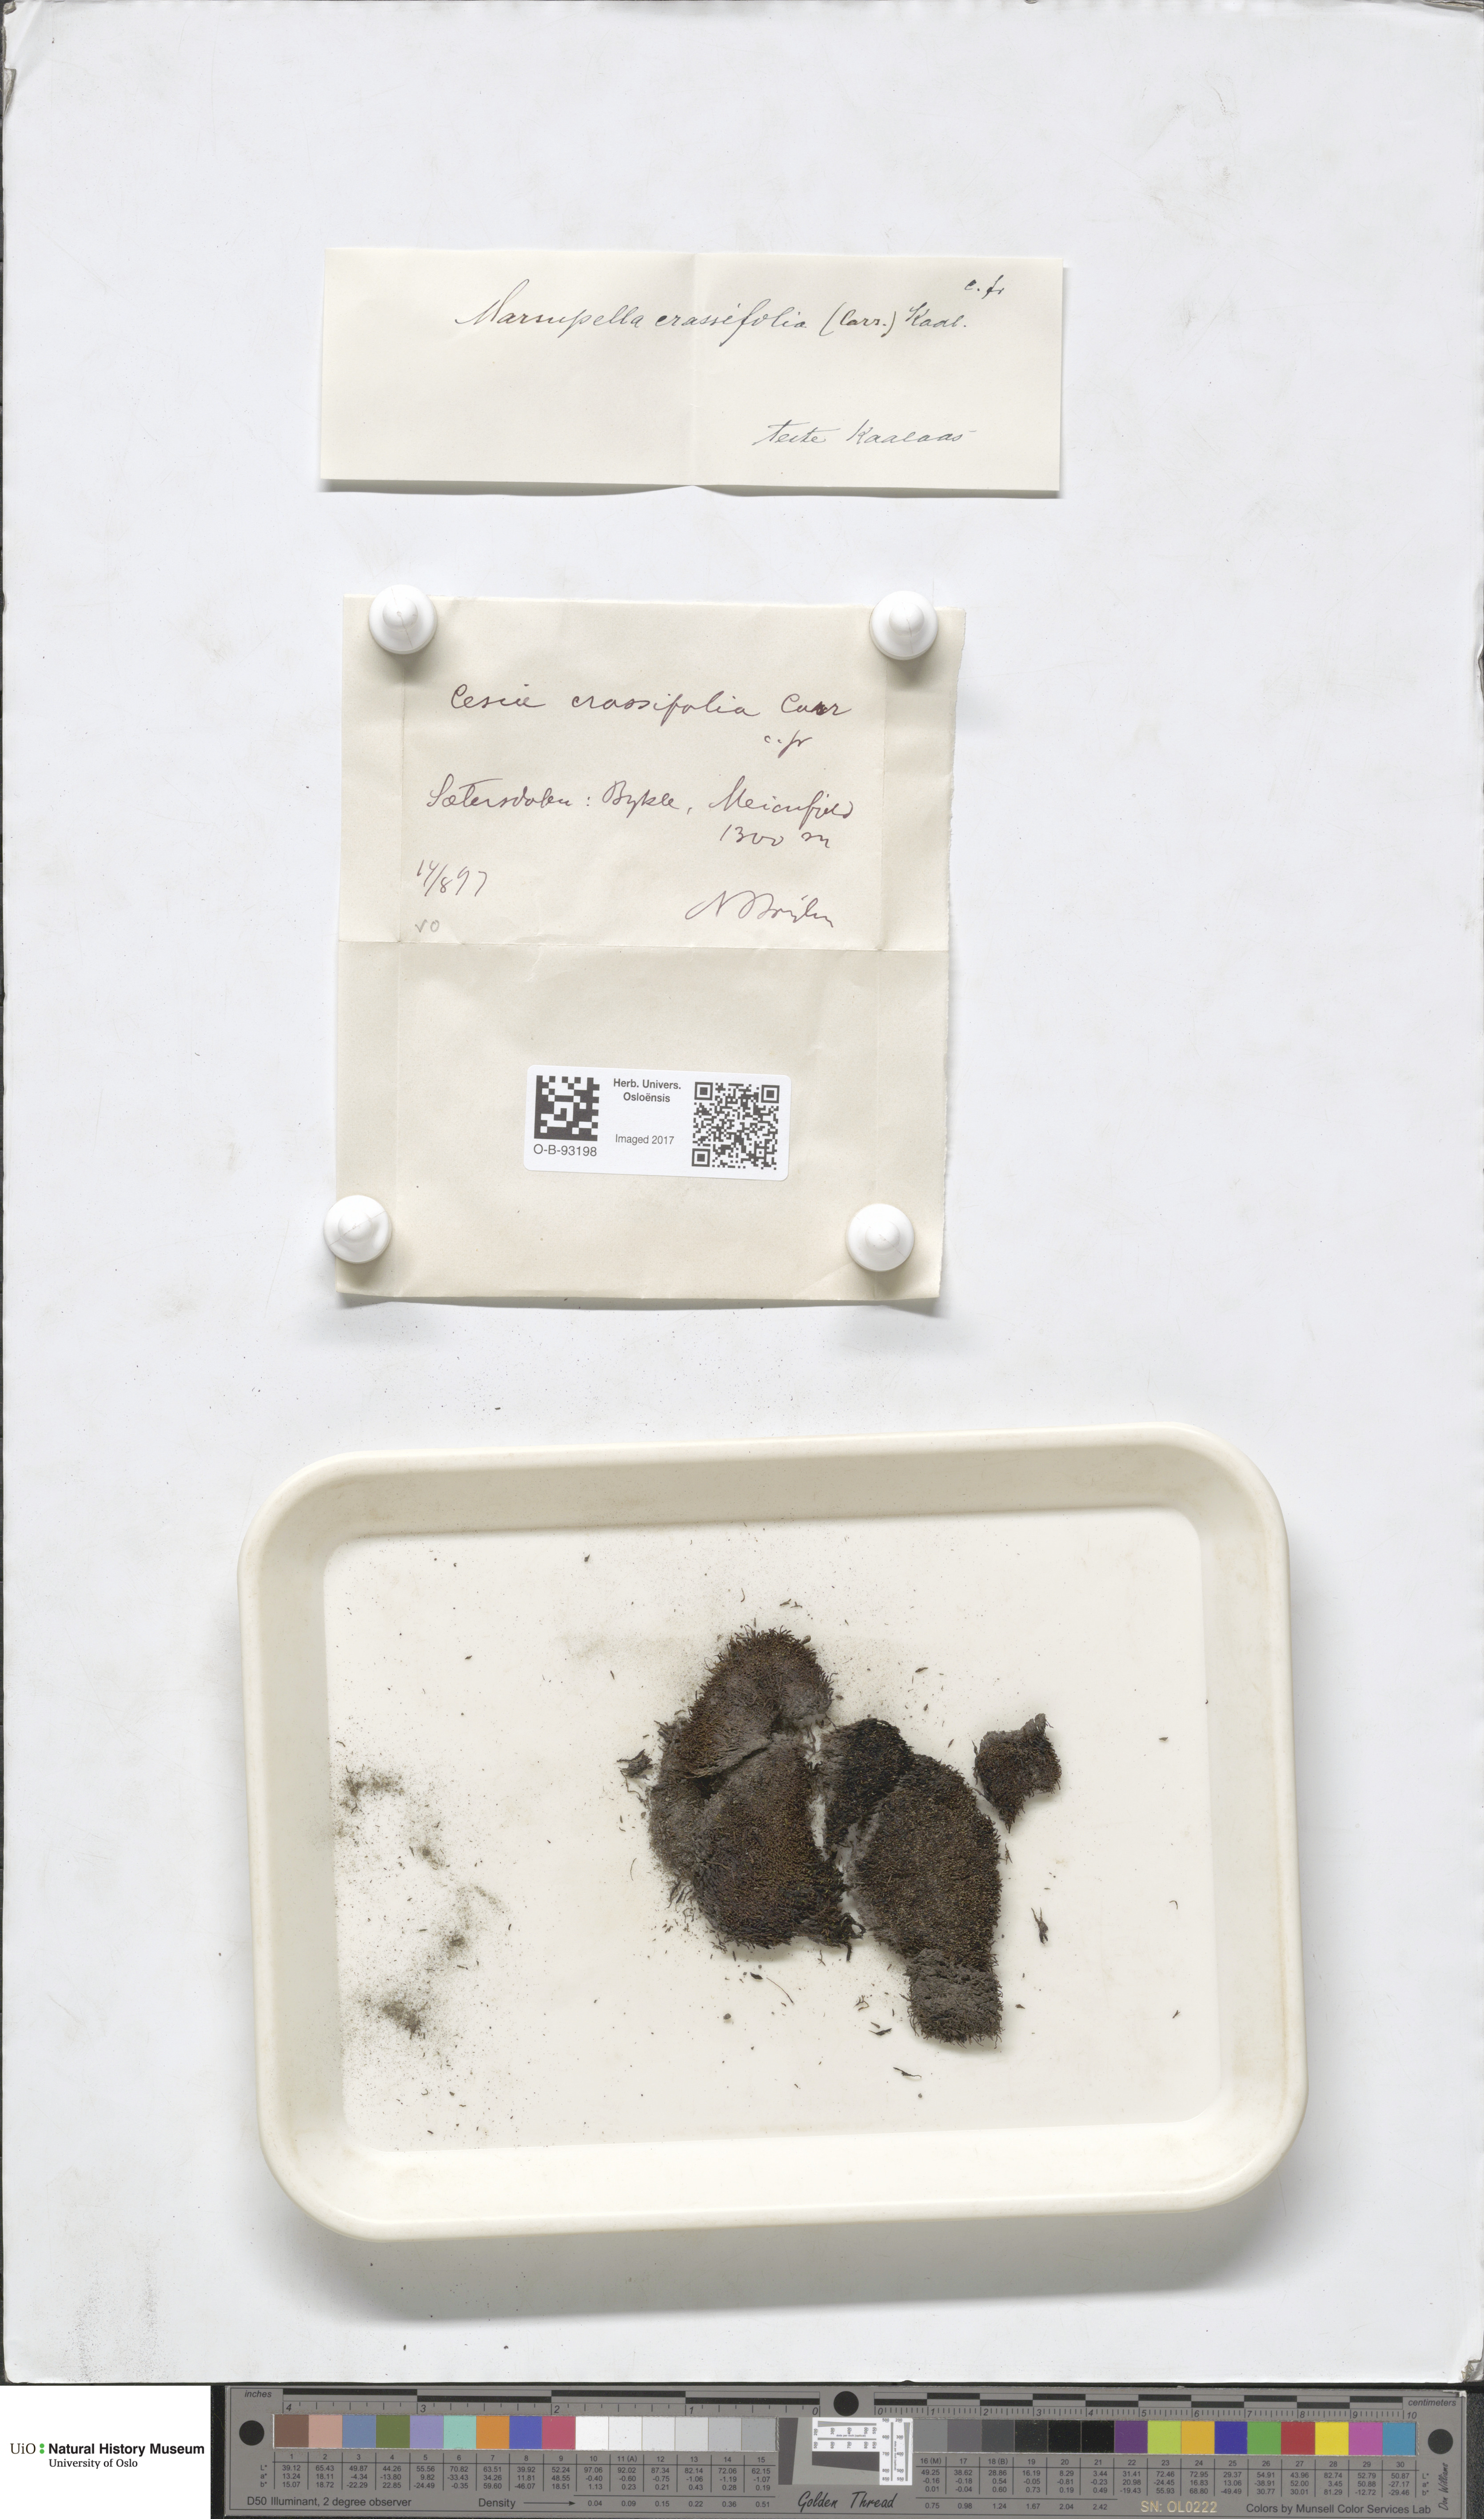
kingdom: Plantae
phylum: Marchantiophyta
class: Jungermanniopsida
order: Jungermanniales
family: Gymnomitriaceae
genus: Gymnomitrion
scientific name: Gymnomitrion brevissimum
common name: Snow rustwort
